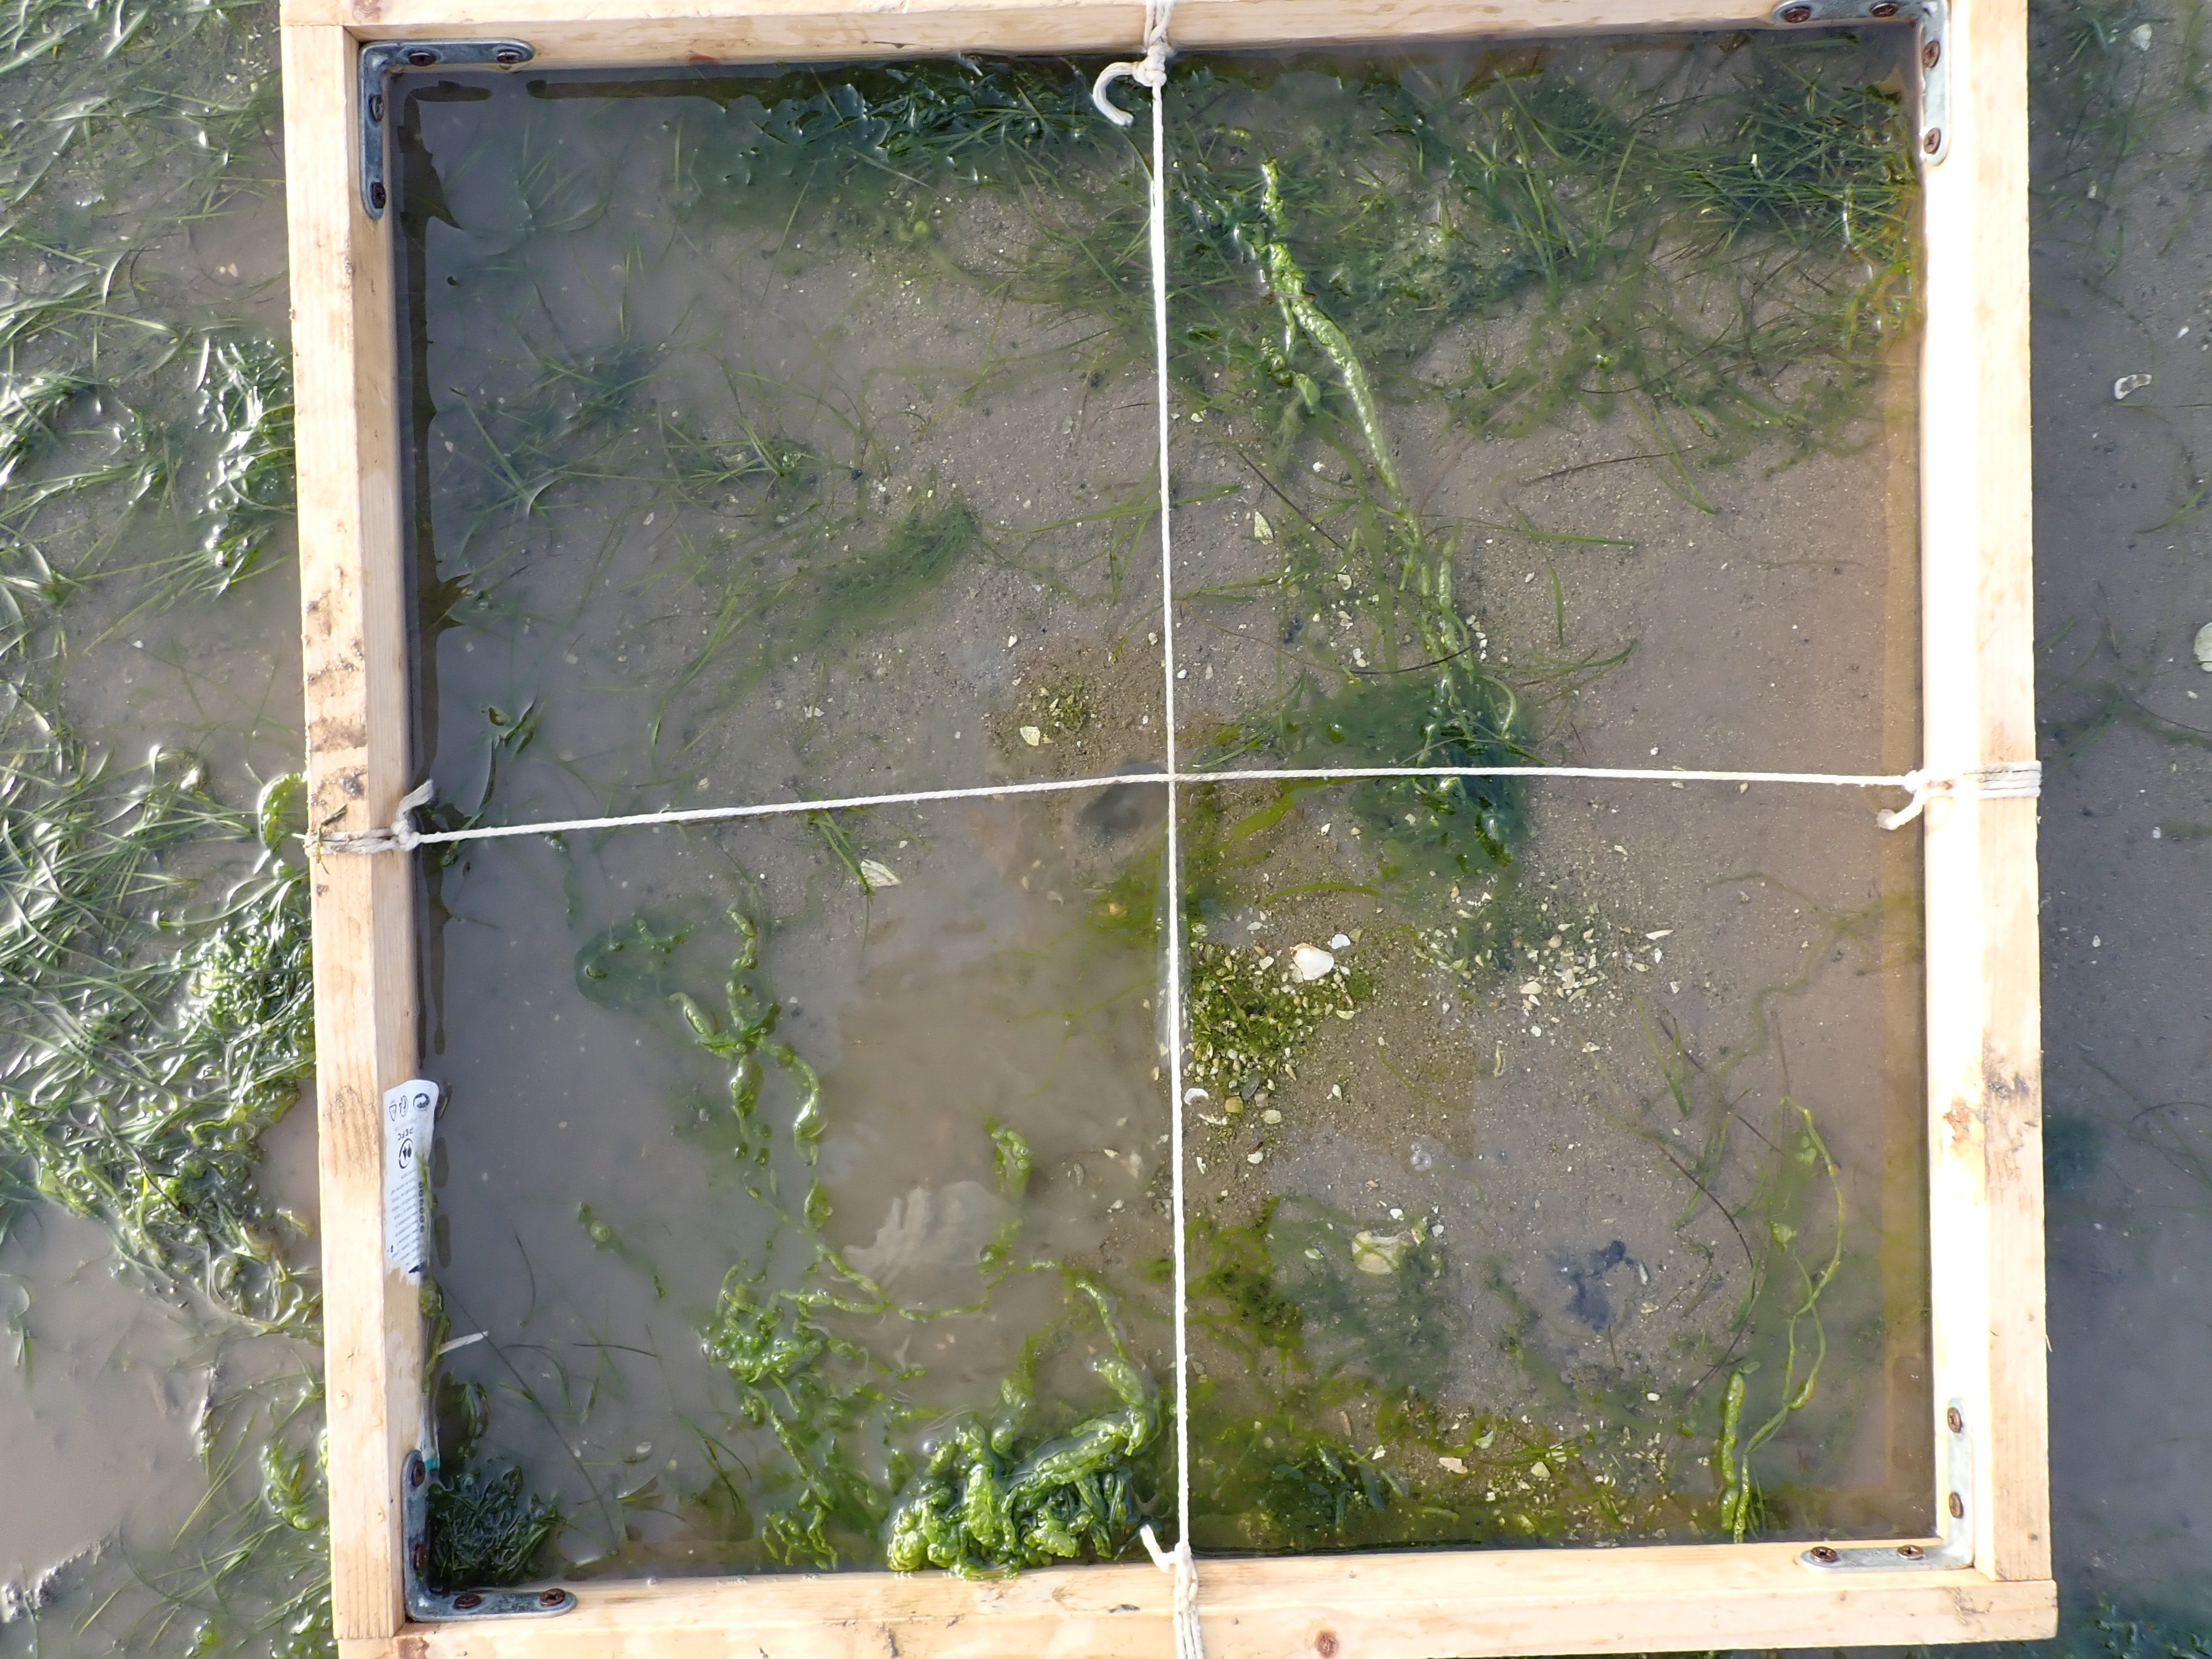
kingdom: Plantae
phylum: Tracheophyta
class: Liliopsida
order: Alismatales
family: Zosteraceae
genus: Zostera
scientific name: Zostera noltii
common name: Dwarf eelgrass
